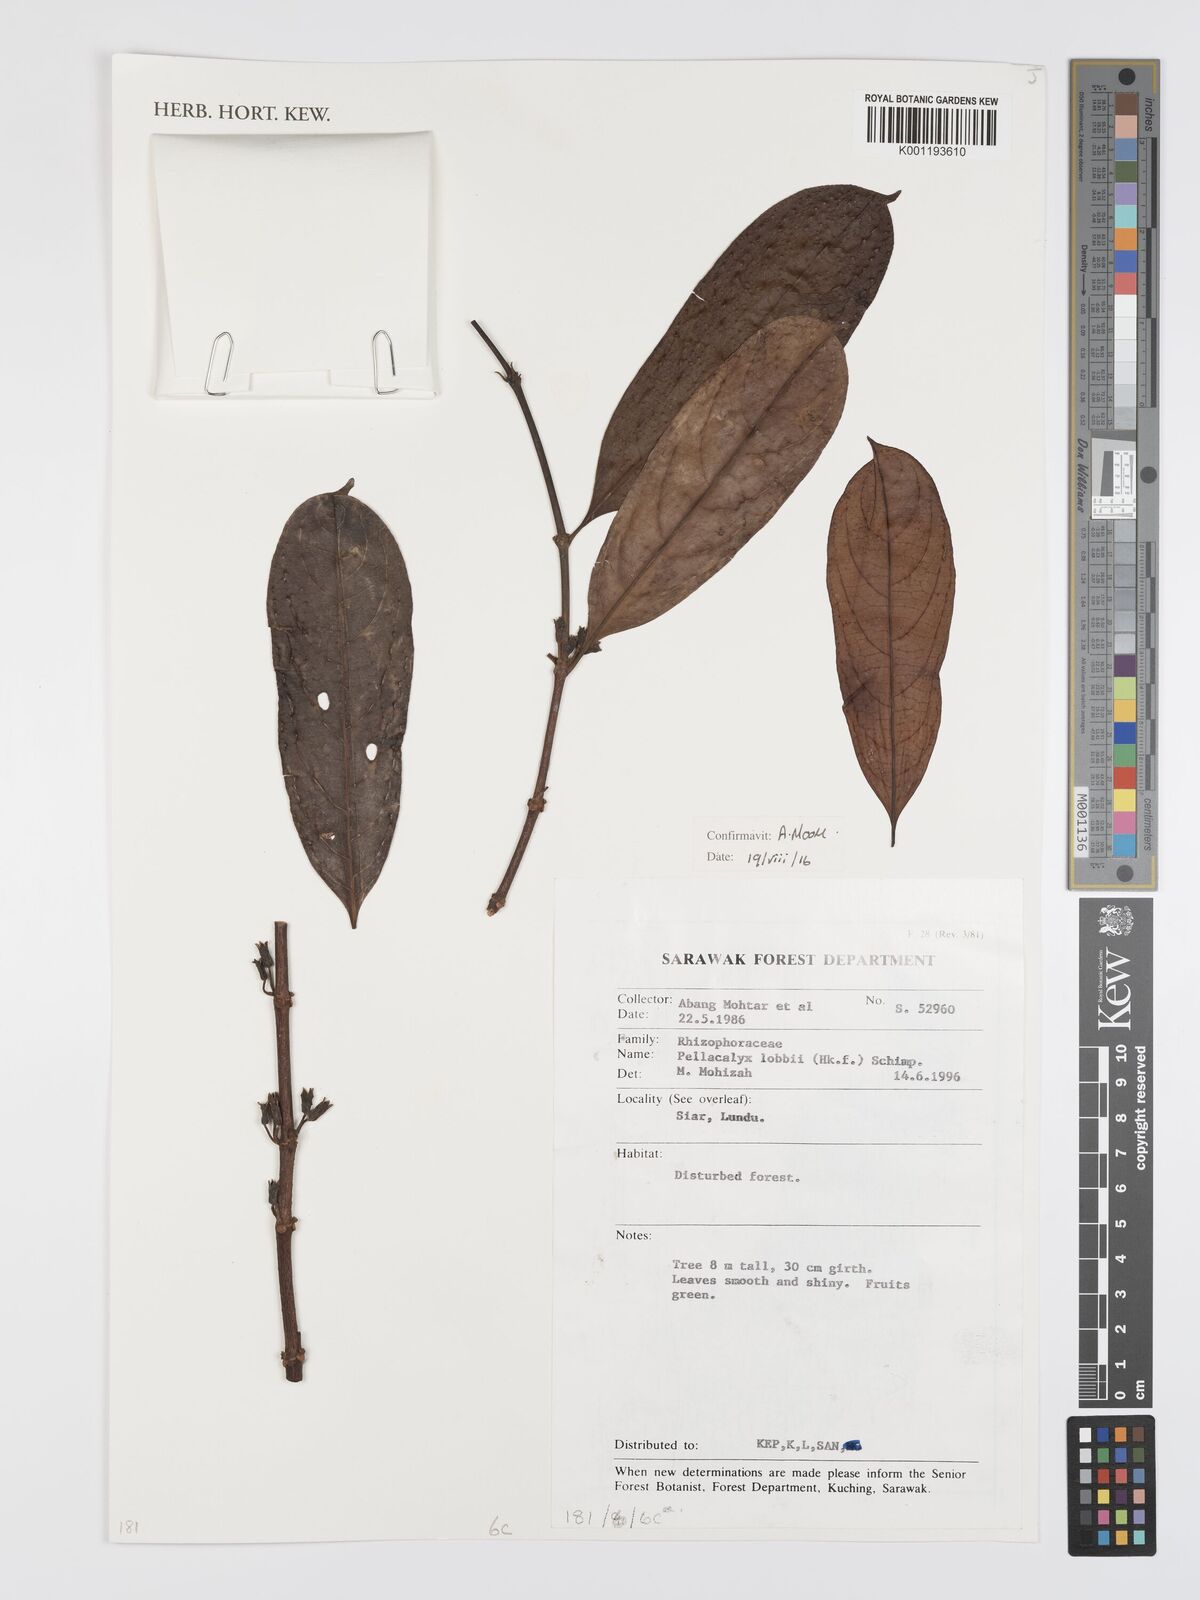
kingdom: Plantae
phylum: Tracheophyta
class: Magnoliopsida
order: Malpighiales
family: Rhizophoraceae
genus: Pellacalyx
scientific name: Pellacalyx
